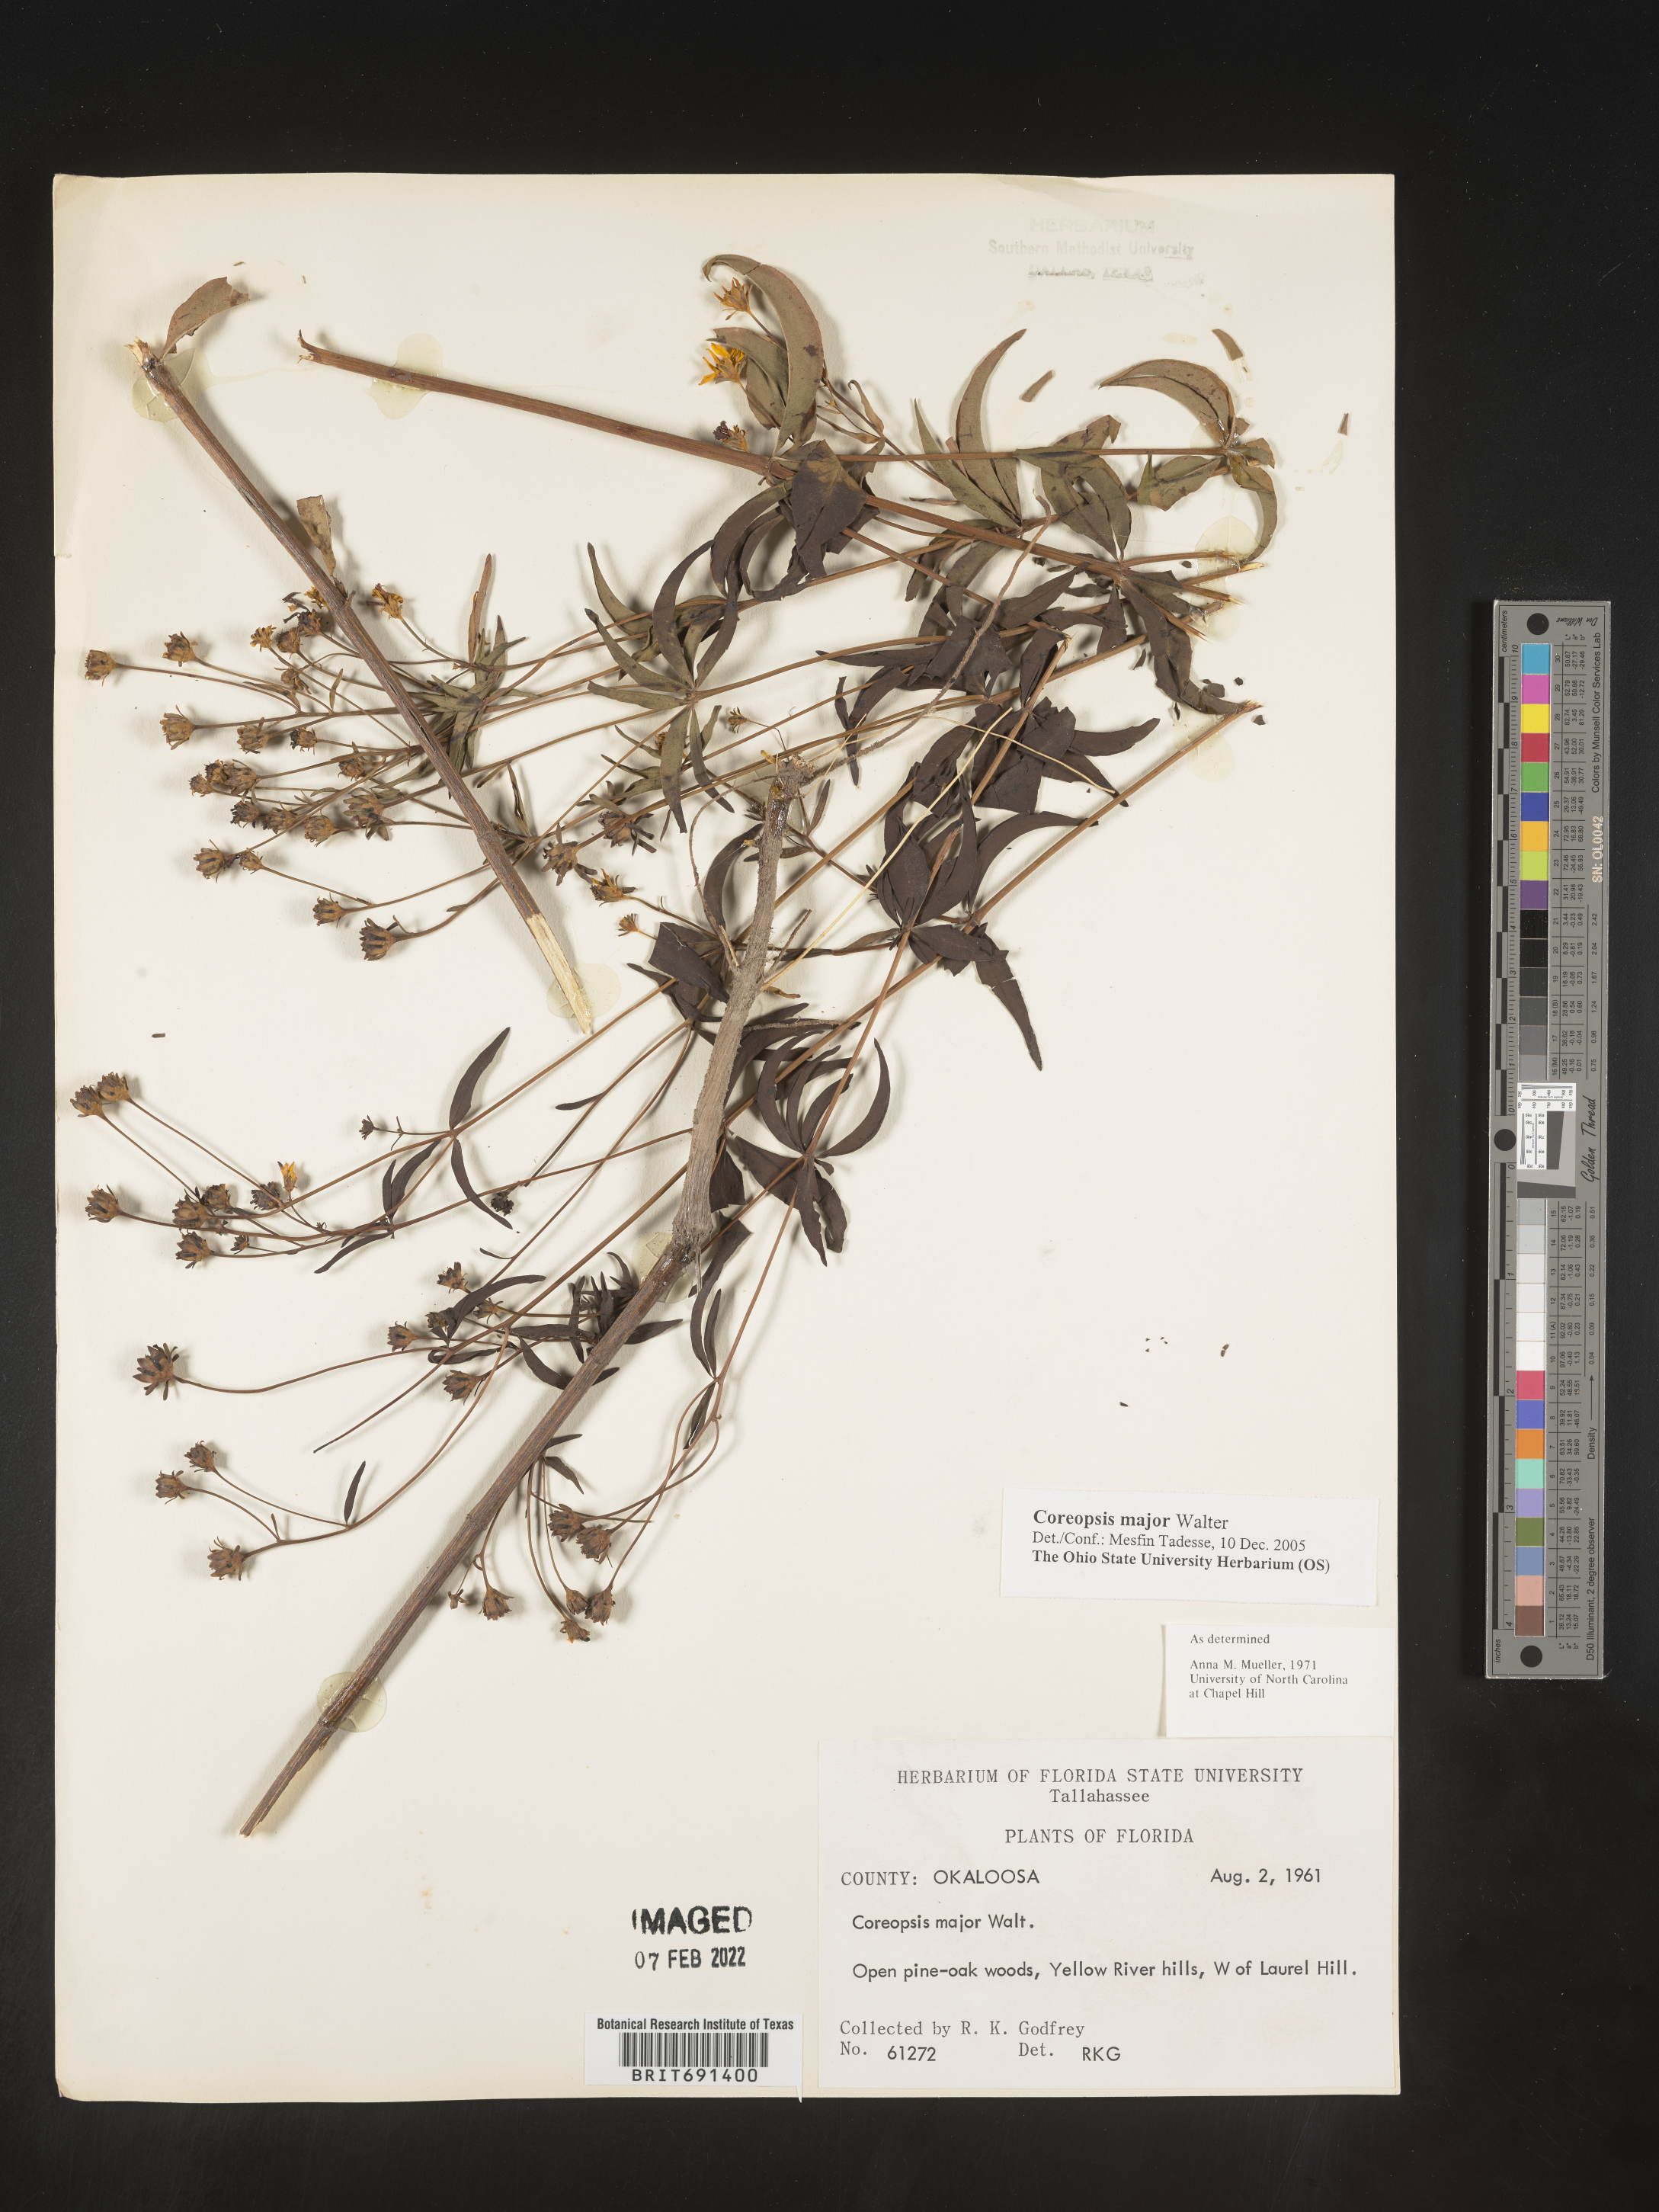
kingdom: Plantae
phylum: Tracheophyta
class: Magnoliopsida
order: Asterales
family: Asteraceae
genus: Coreopsis
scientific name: Coreopsis major
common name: Forest tickseed
